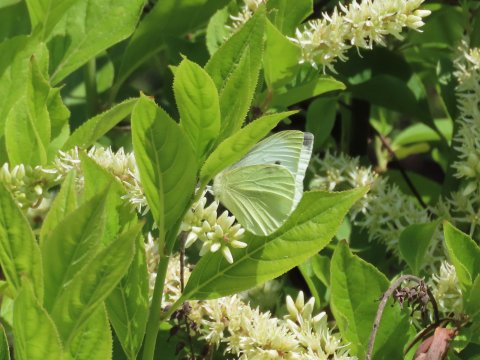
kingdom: Animalia
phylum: Arthropoda
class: Insecta
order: Lepidoptera
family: Pieridae
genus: Pieris
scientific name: Pieris rapae
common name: Cabbage White
